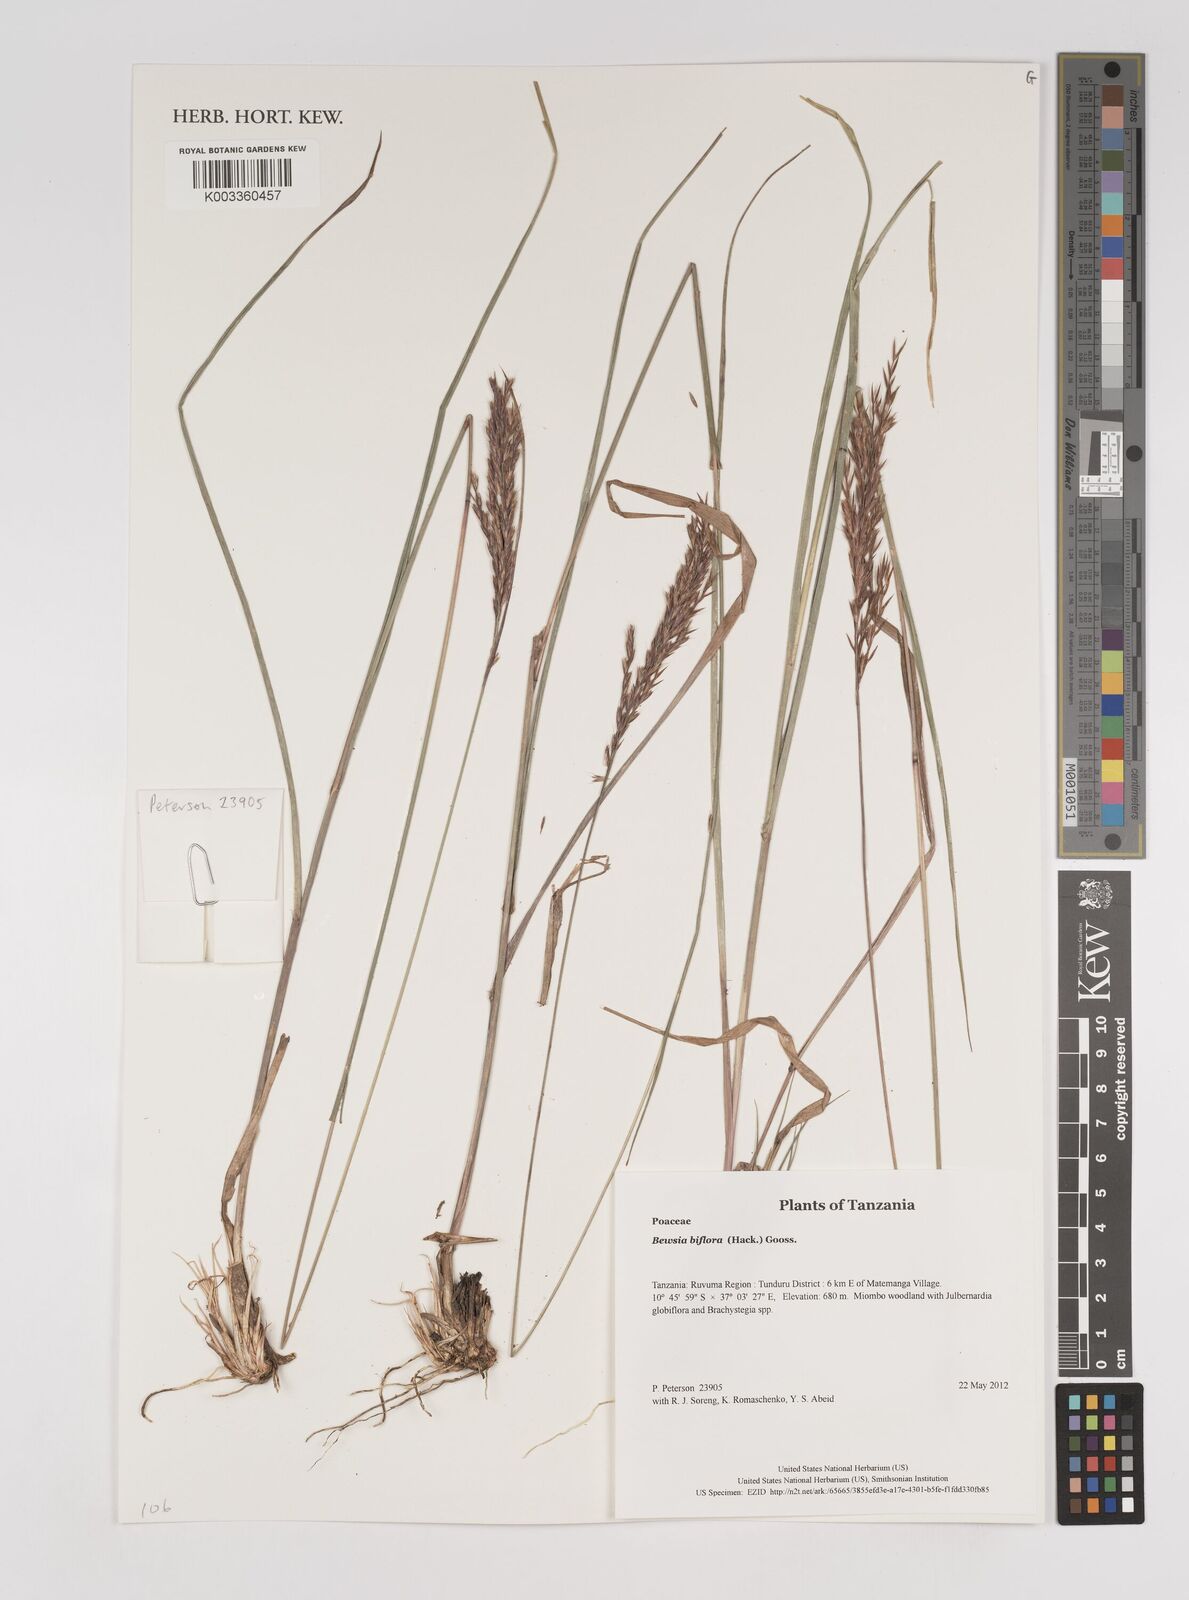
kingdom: Plantae
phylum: Tracheophyta
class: Liliopsida
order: Poales
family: Poaceae
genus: Bewsia
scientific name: Bewsia biflora
